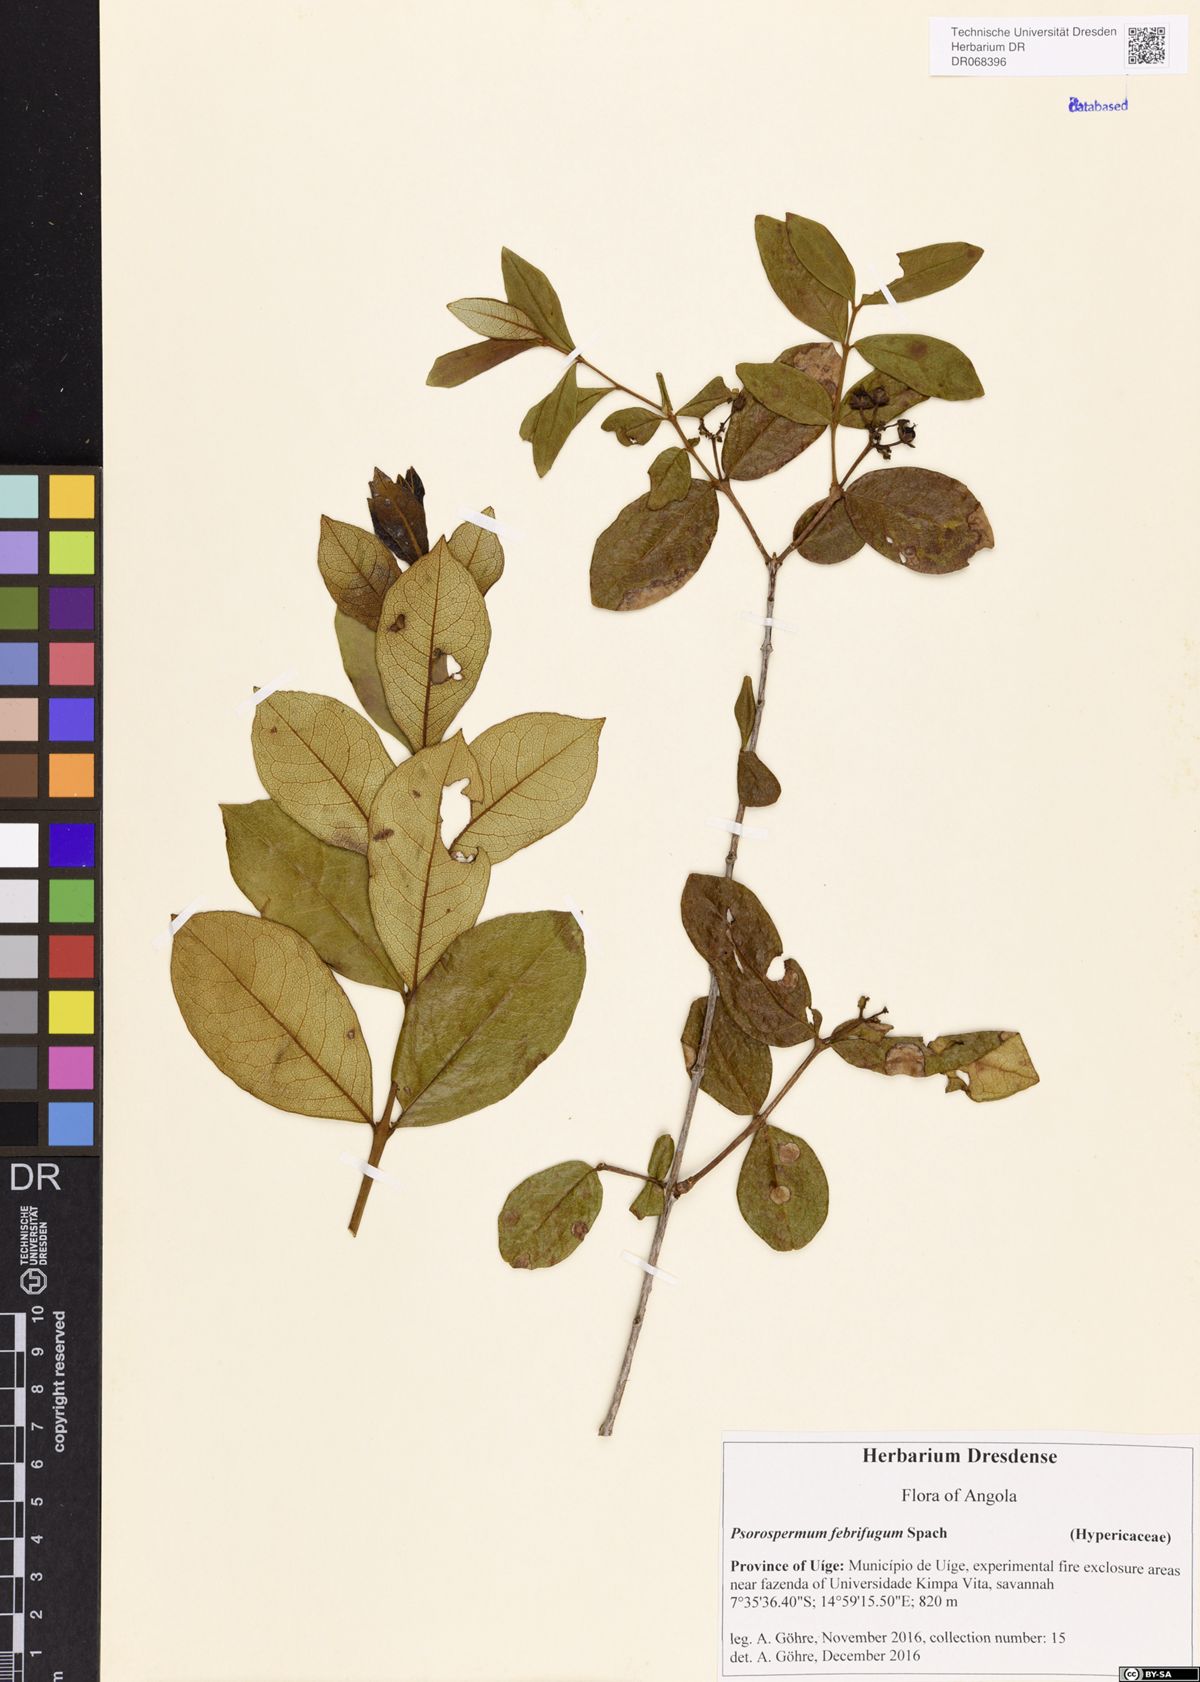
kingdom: Plantae
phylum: Tracheophyta
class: Magnoliopsida
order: Malpighiales
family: Hypericaceae
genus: Psorospermum
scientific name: Psorospermum febrifugum
